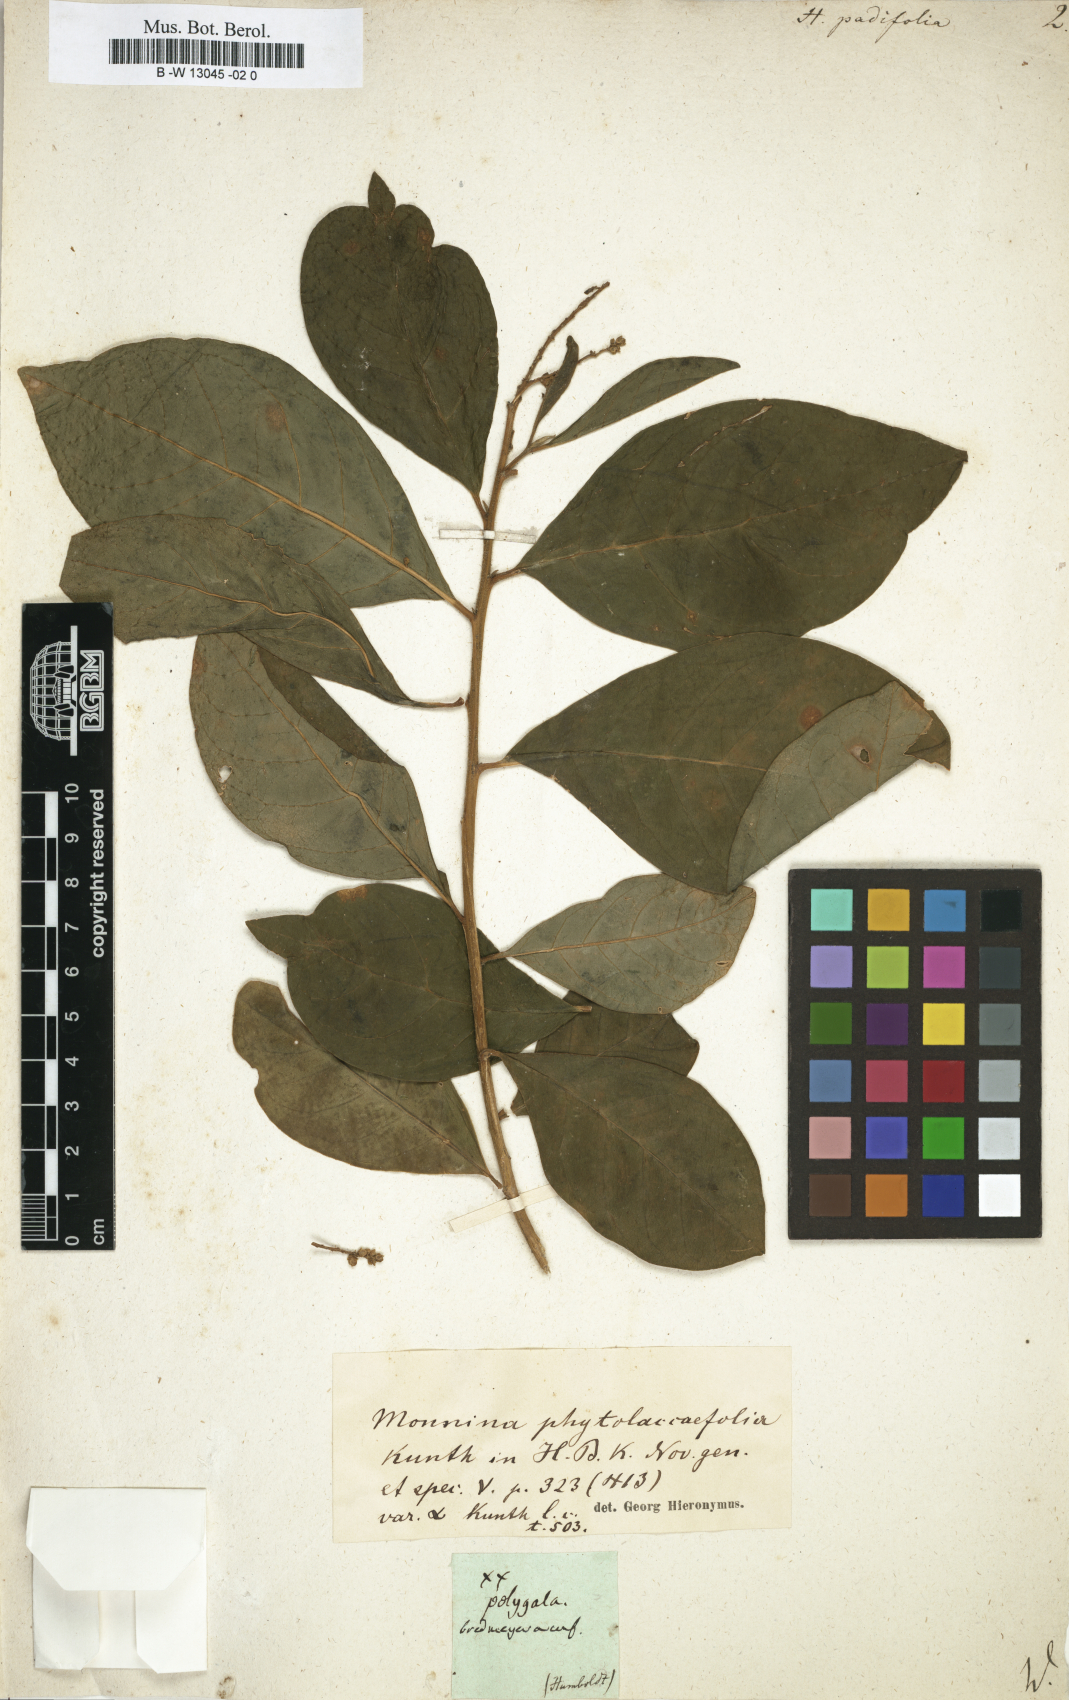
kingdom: Plantae
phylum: Tracheophyta
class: Magnoliopsida
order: Fabales
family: Polygalaceae
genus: Monnina
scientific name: Monnina padifolia
